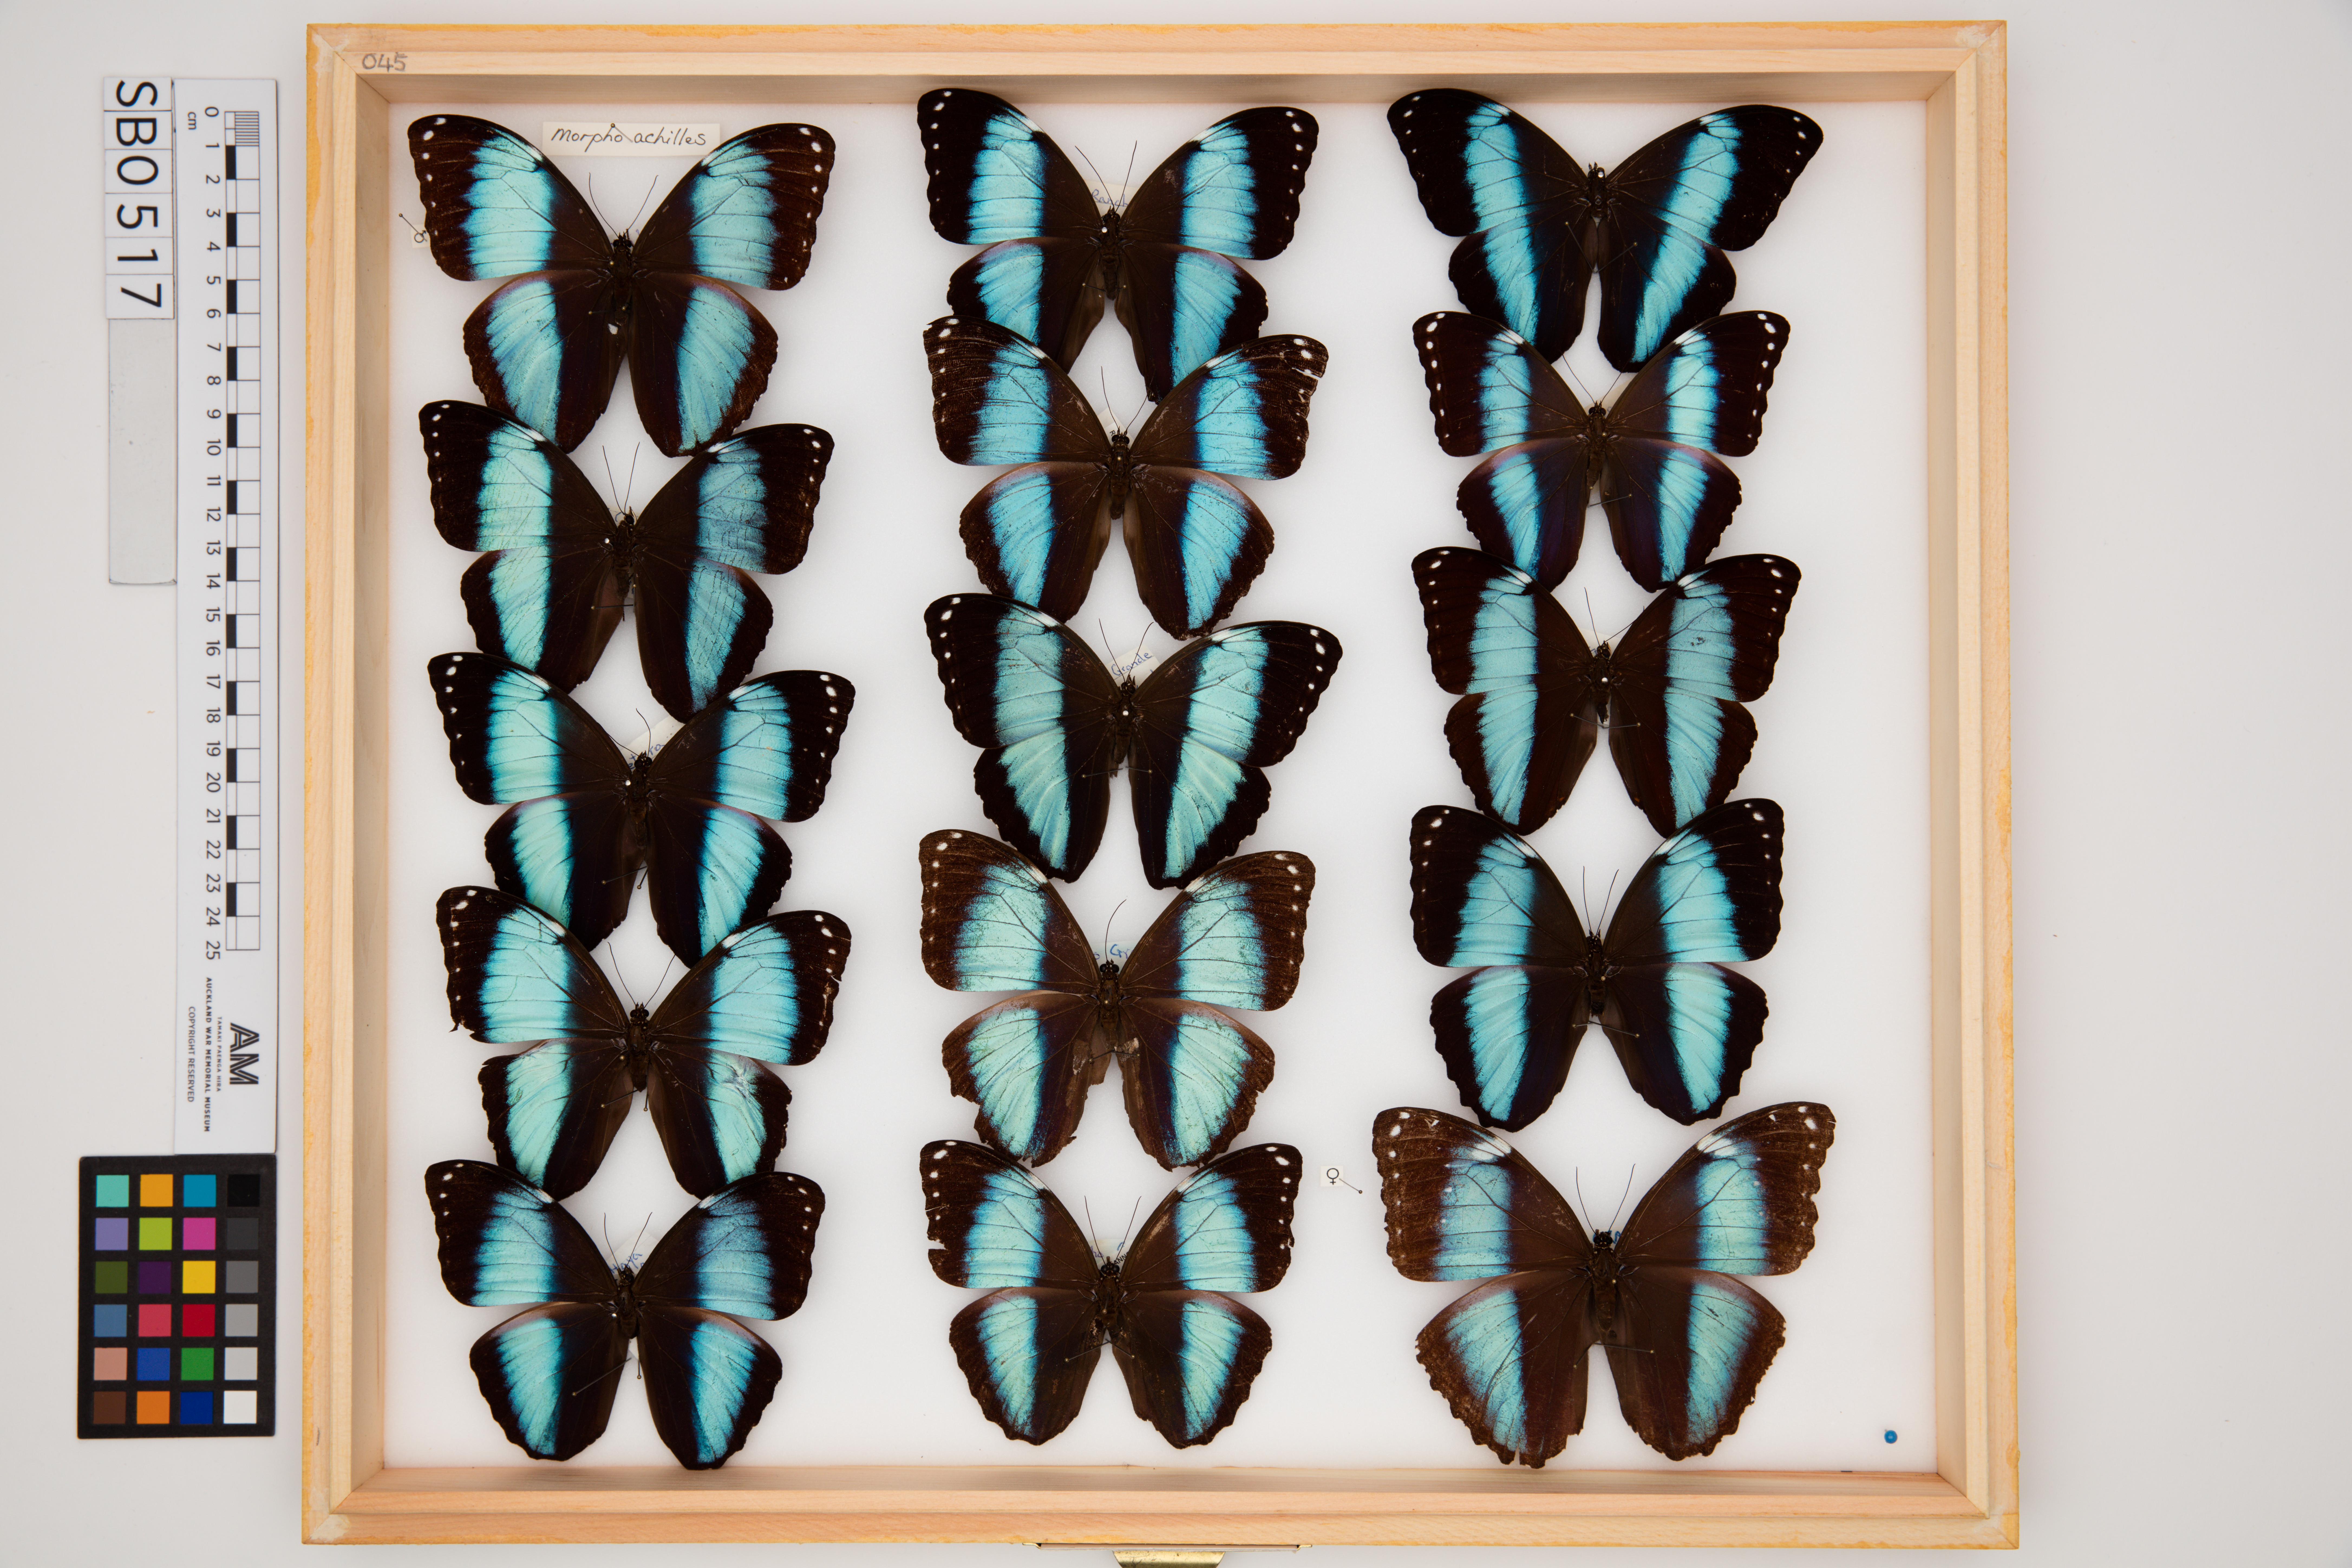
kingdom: Animalia
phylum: Arthropoda
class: Insecta
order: Lepidoptera
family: Nymphalidae
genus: Morpho
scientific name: Morpho achilles
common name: Achilles morpho
